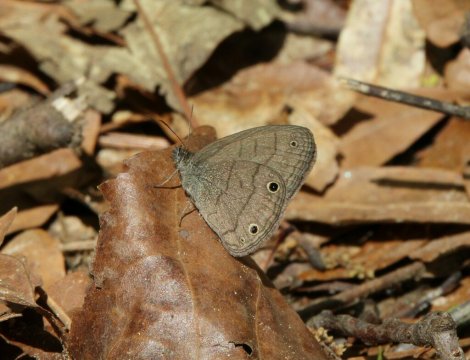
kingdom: Animalia
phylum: Arthropoda
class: Insecta
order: Lepidoptera
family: Nymphalidae
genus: Hermeuptychia
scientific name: Hermeuptychia hermes
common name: Carolina Satyr
